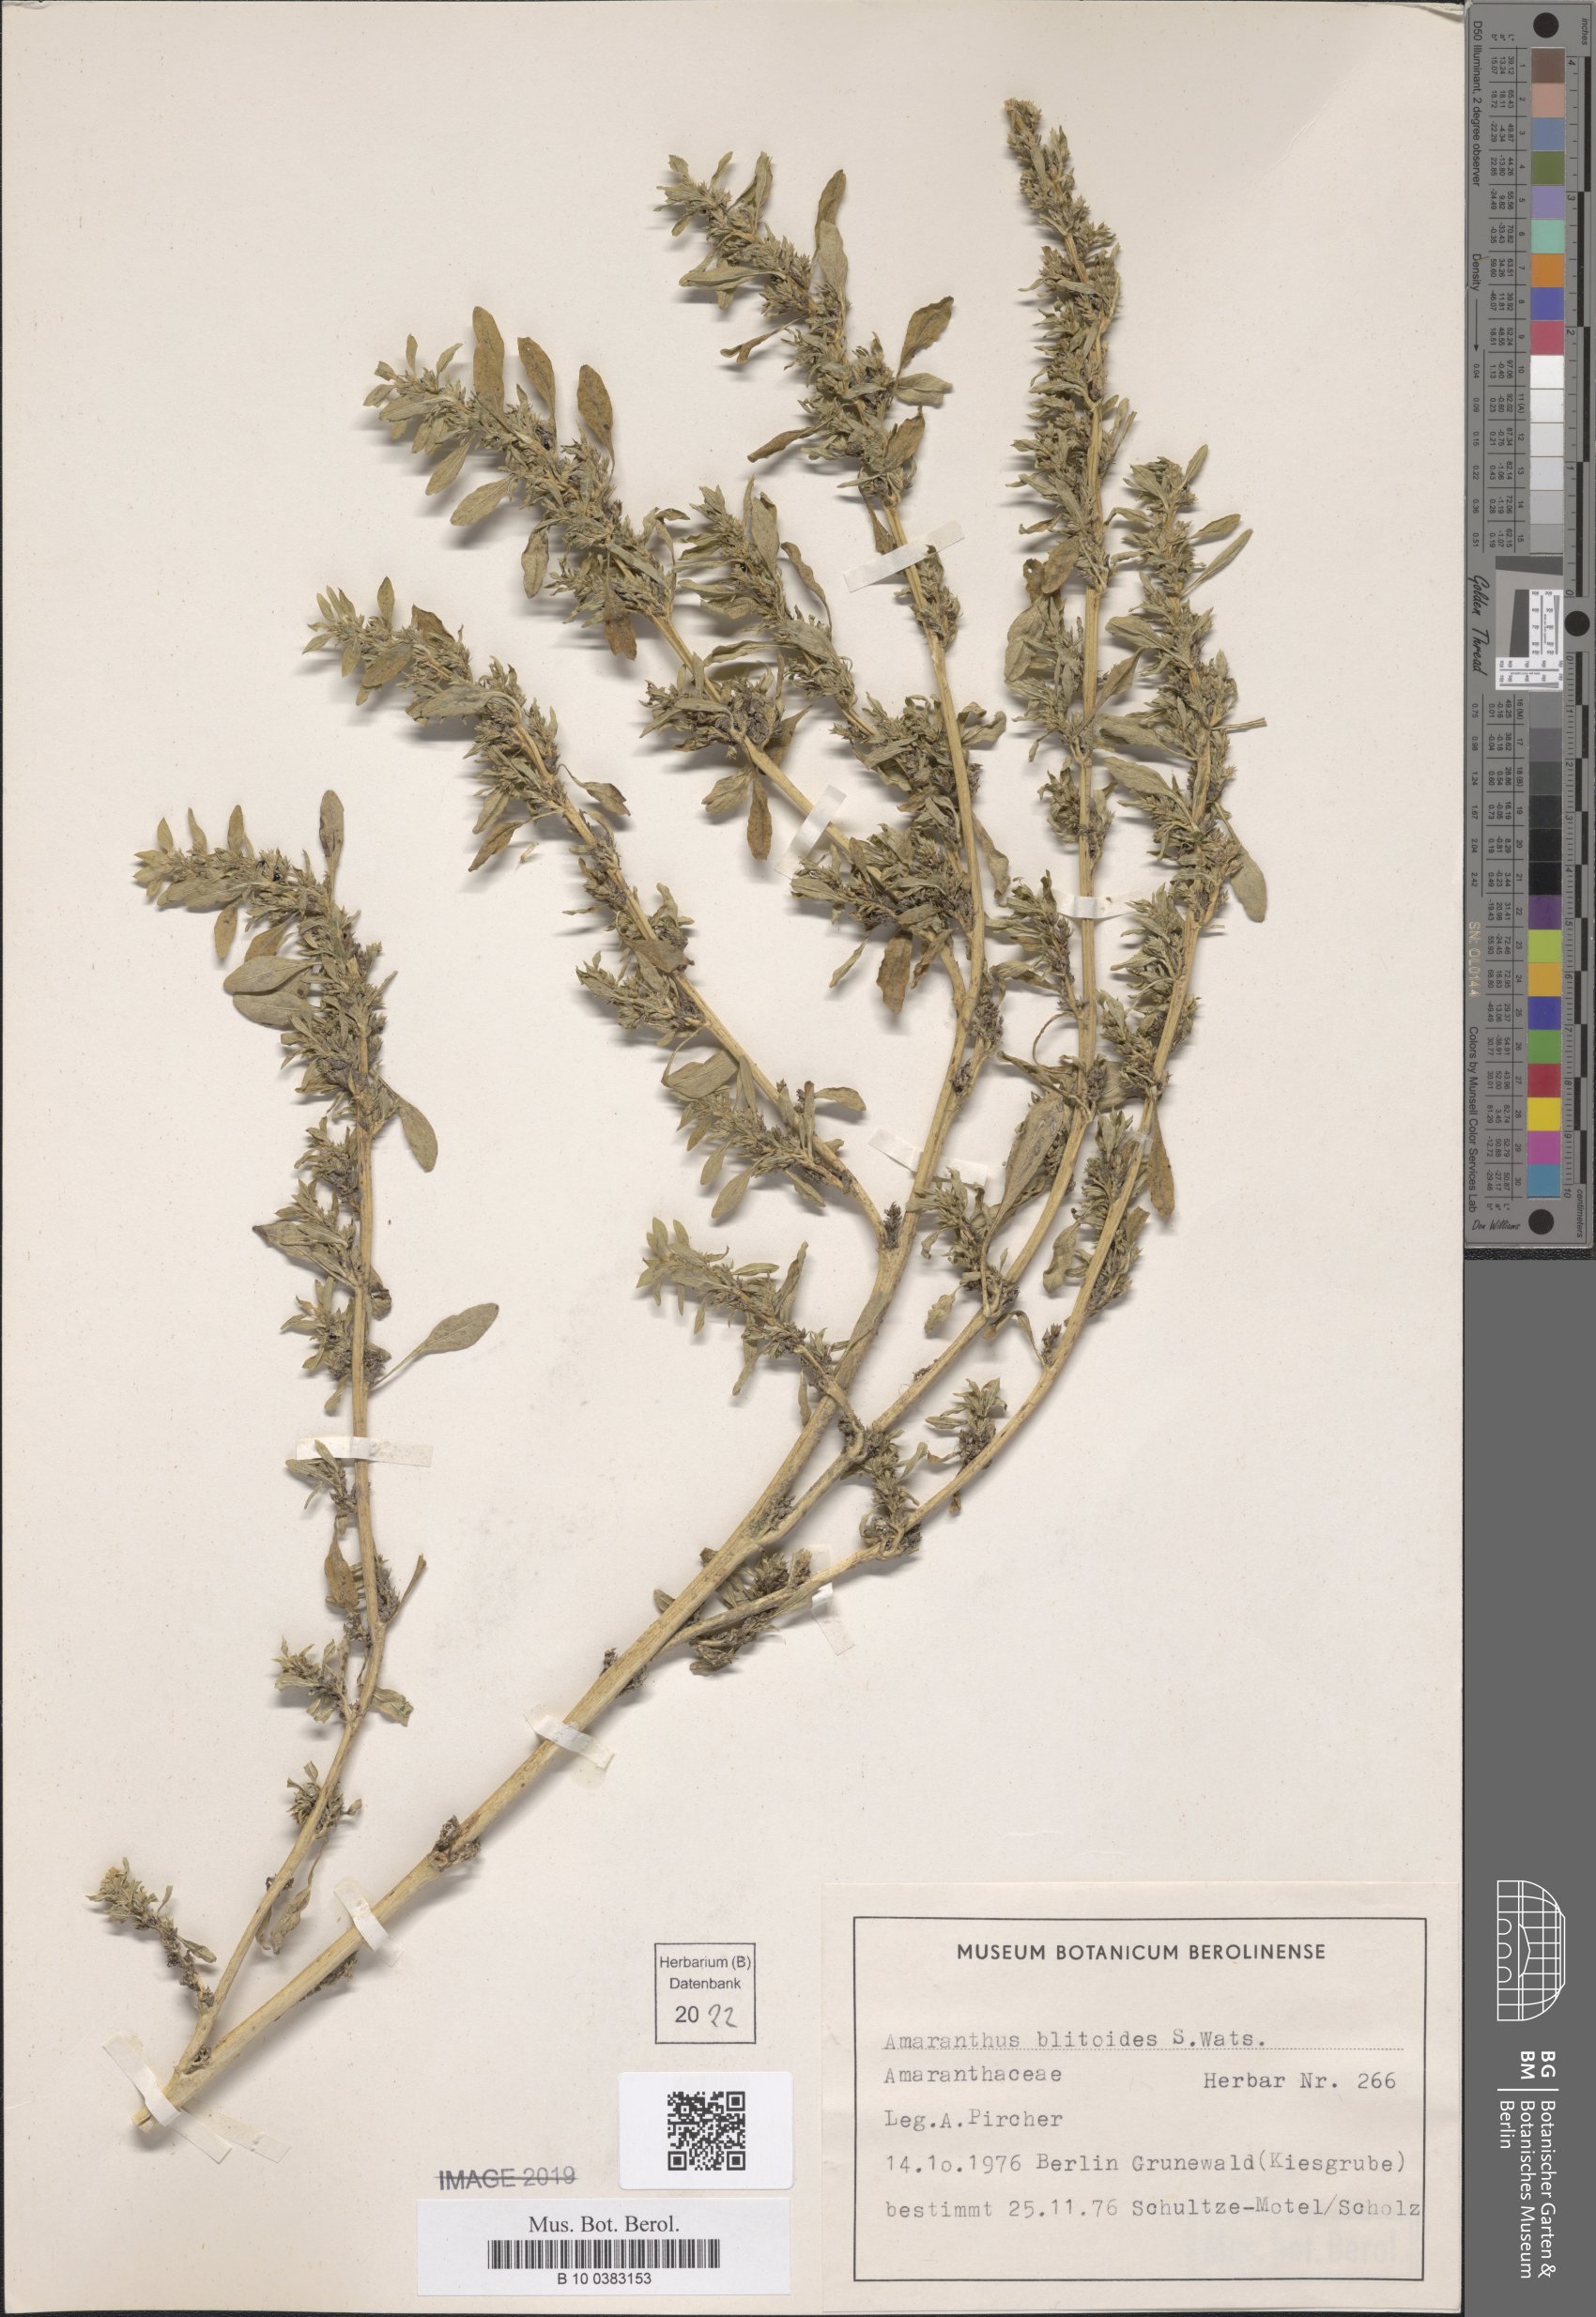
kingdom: Plantae
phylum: Tracheophyta
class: Magnoliopsida
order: Caryophyllales
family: Amaranthaceae
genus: Amaranthus
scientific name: Amaranthus blitoides
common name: Prostrate pigweed
